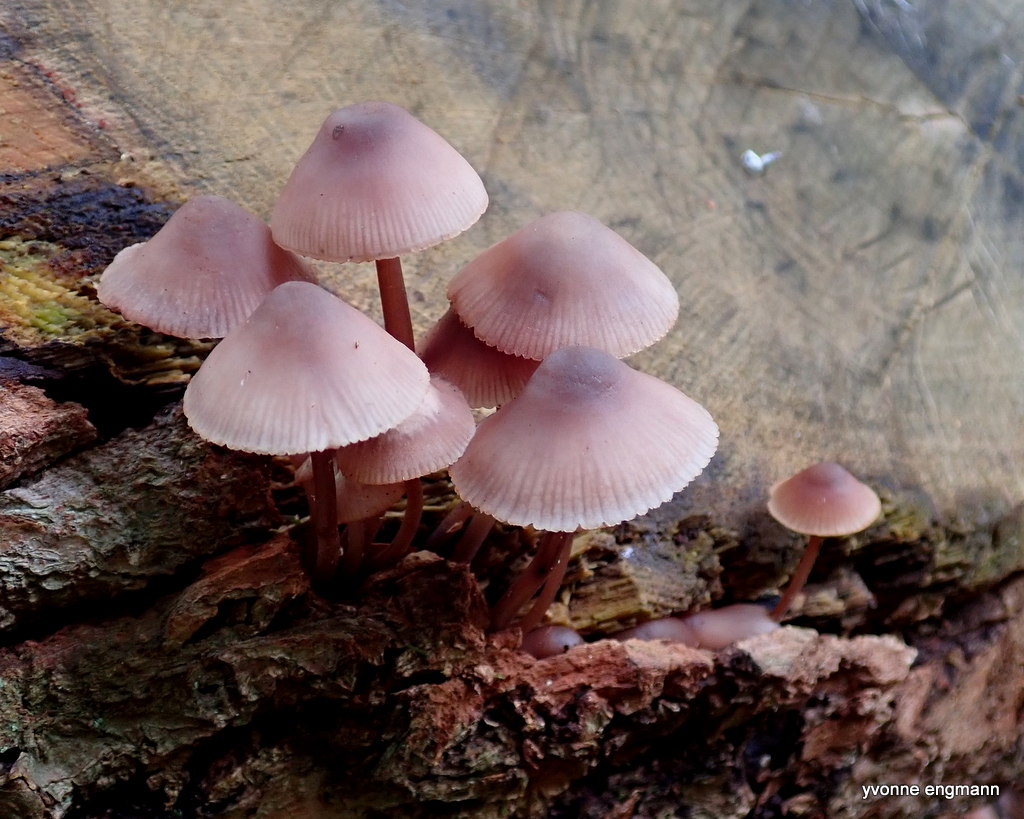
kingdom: Fungi
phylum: Basidiomycota
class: Agaricomycetes
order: Agaricales
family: Mycenaceae
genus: Mycena
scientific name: Mycena haematopus
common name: blødende huesvamp
